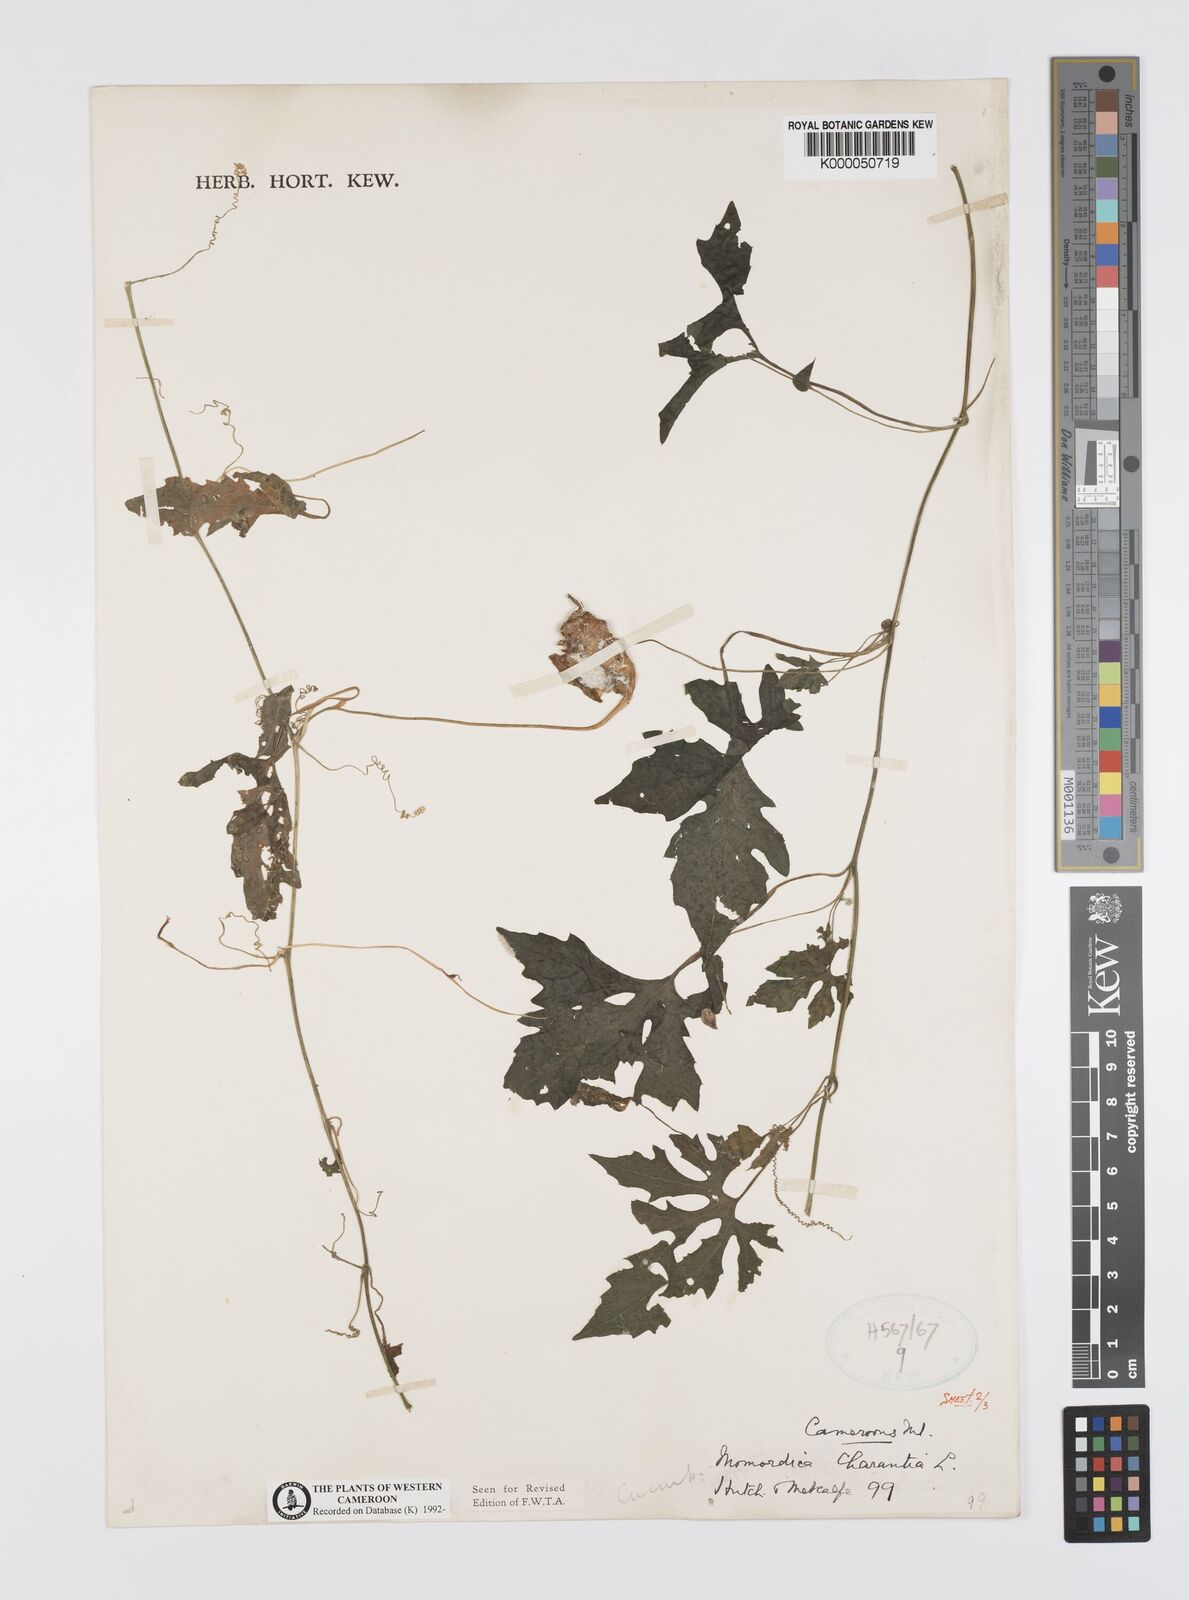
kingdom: Plantae
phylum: Tracheophyta
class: Magnoliopsida
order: Cucurbitales
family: Cucurbitaceae
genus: Momordica
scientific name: Momordica charantia
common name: Balsampear
